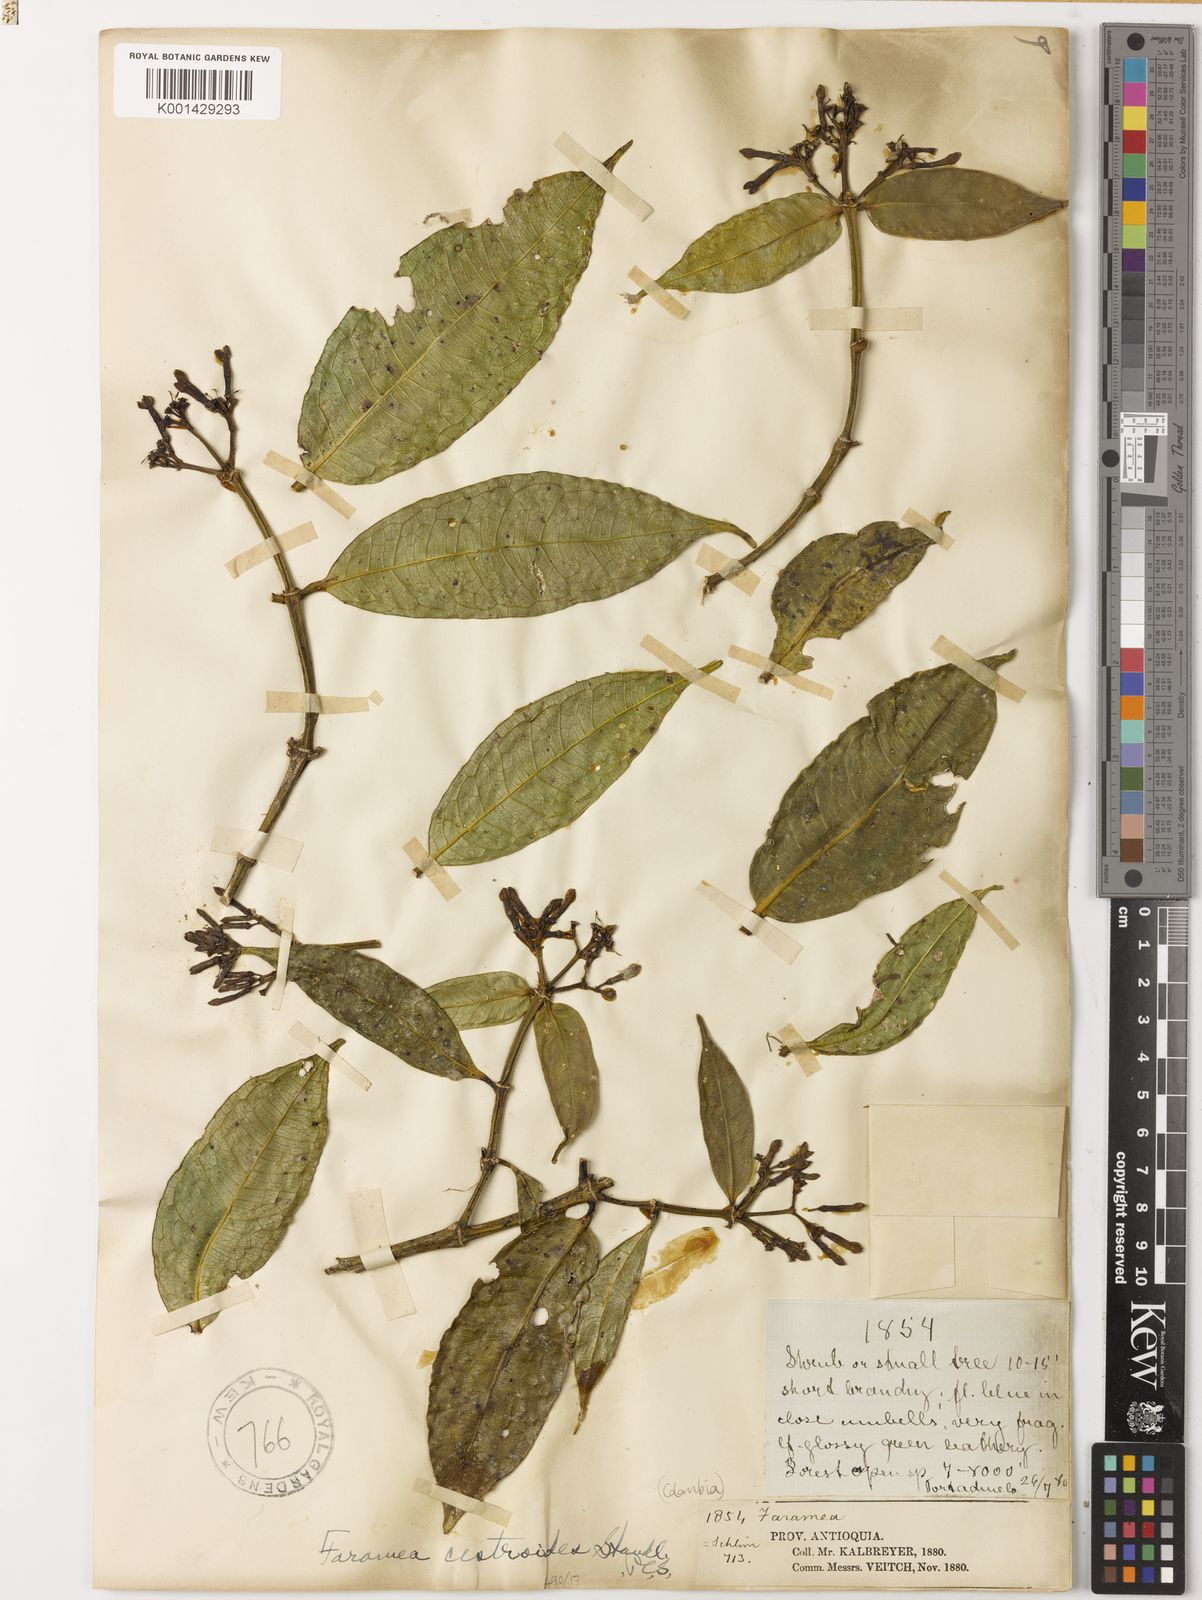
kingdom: Plantae
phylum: Tracheophyta
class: Magnoliopsida
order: Gentianales
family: Rubiaceae
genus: Faramea
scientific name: Faramea latifolia
